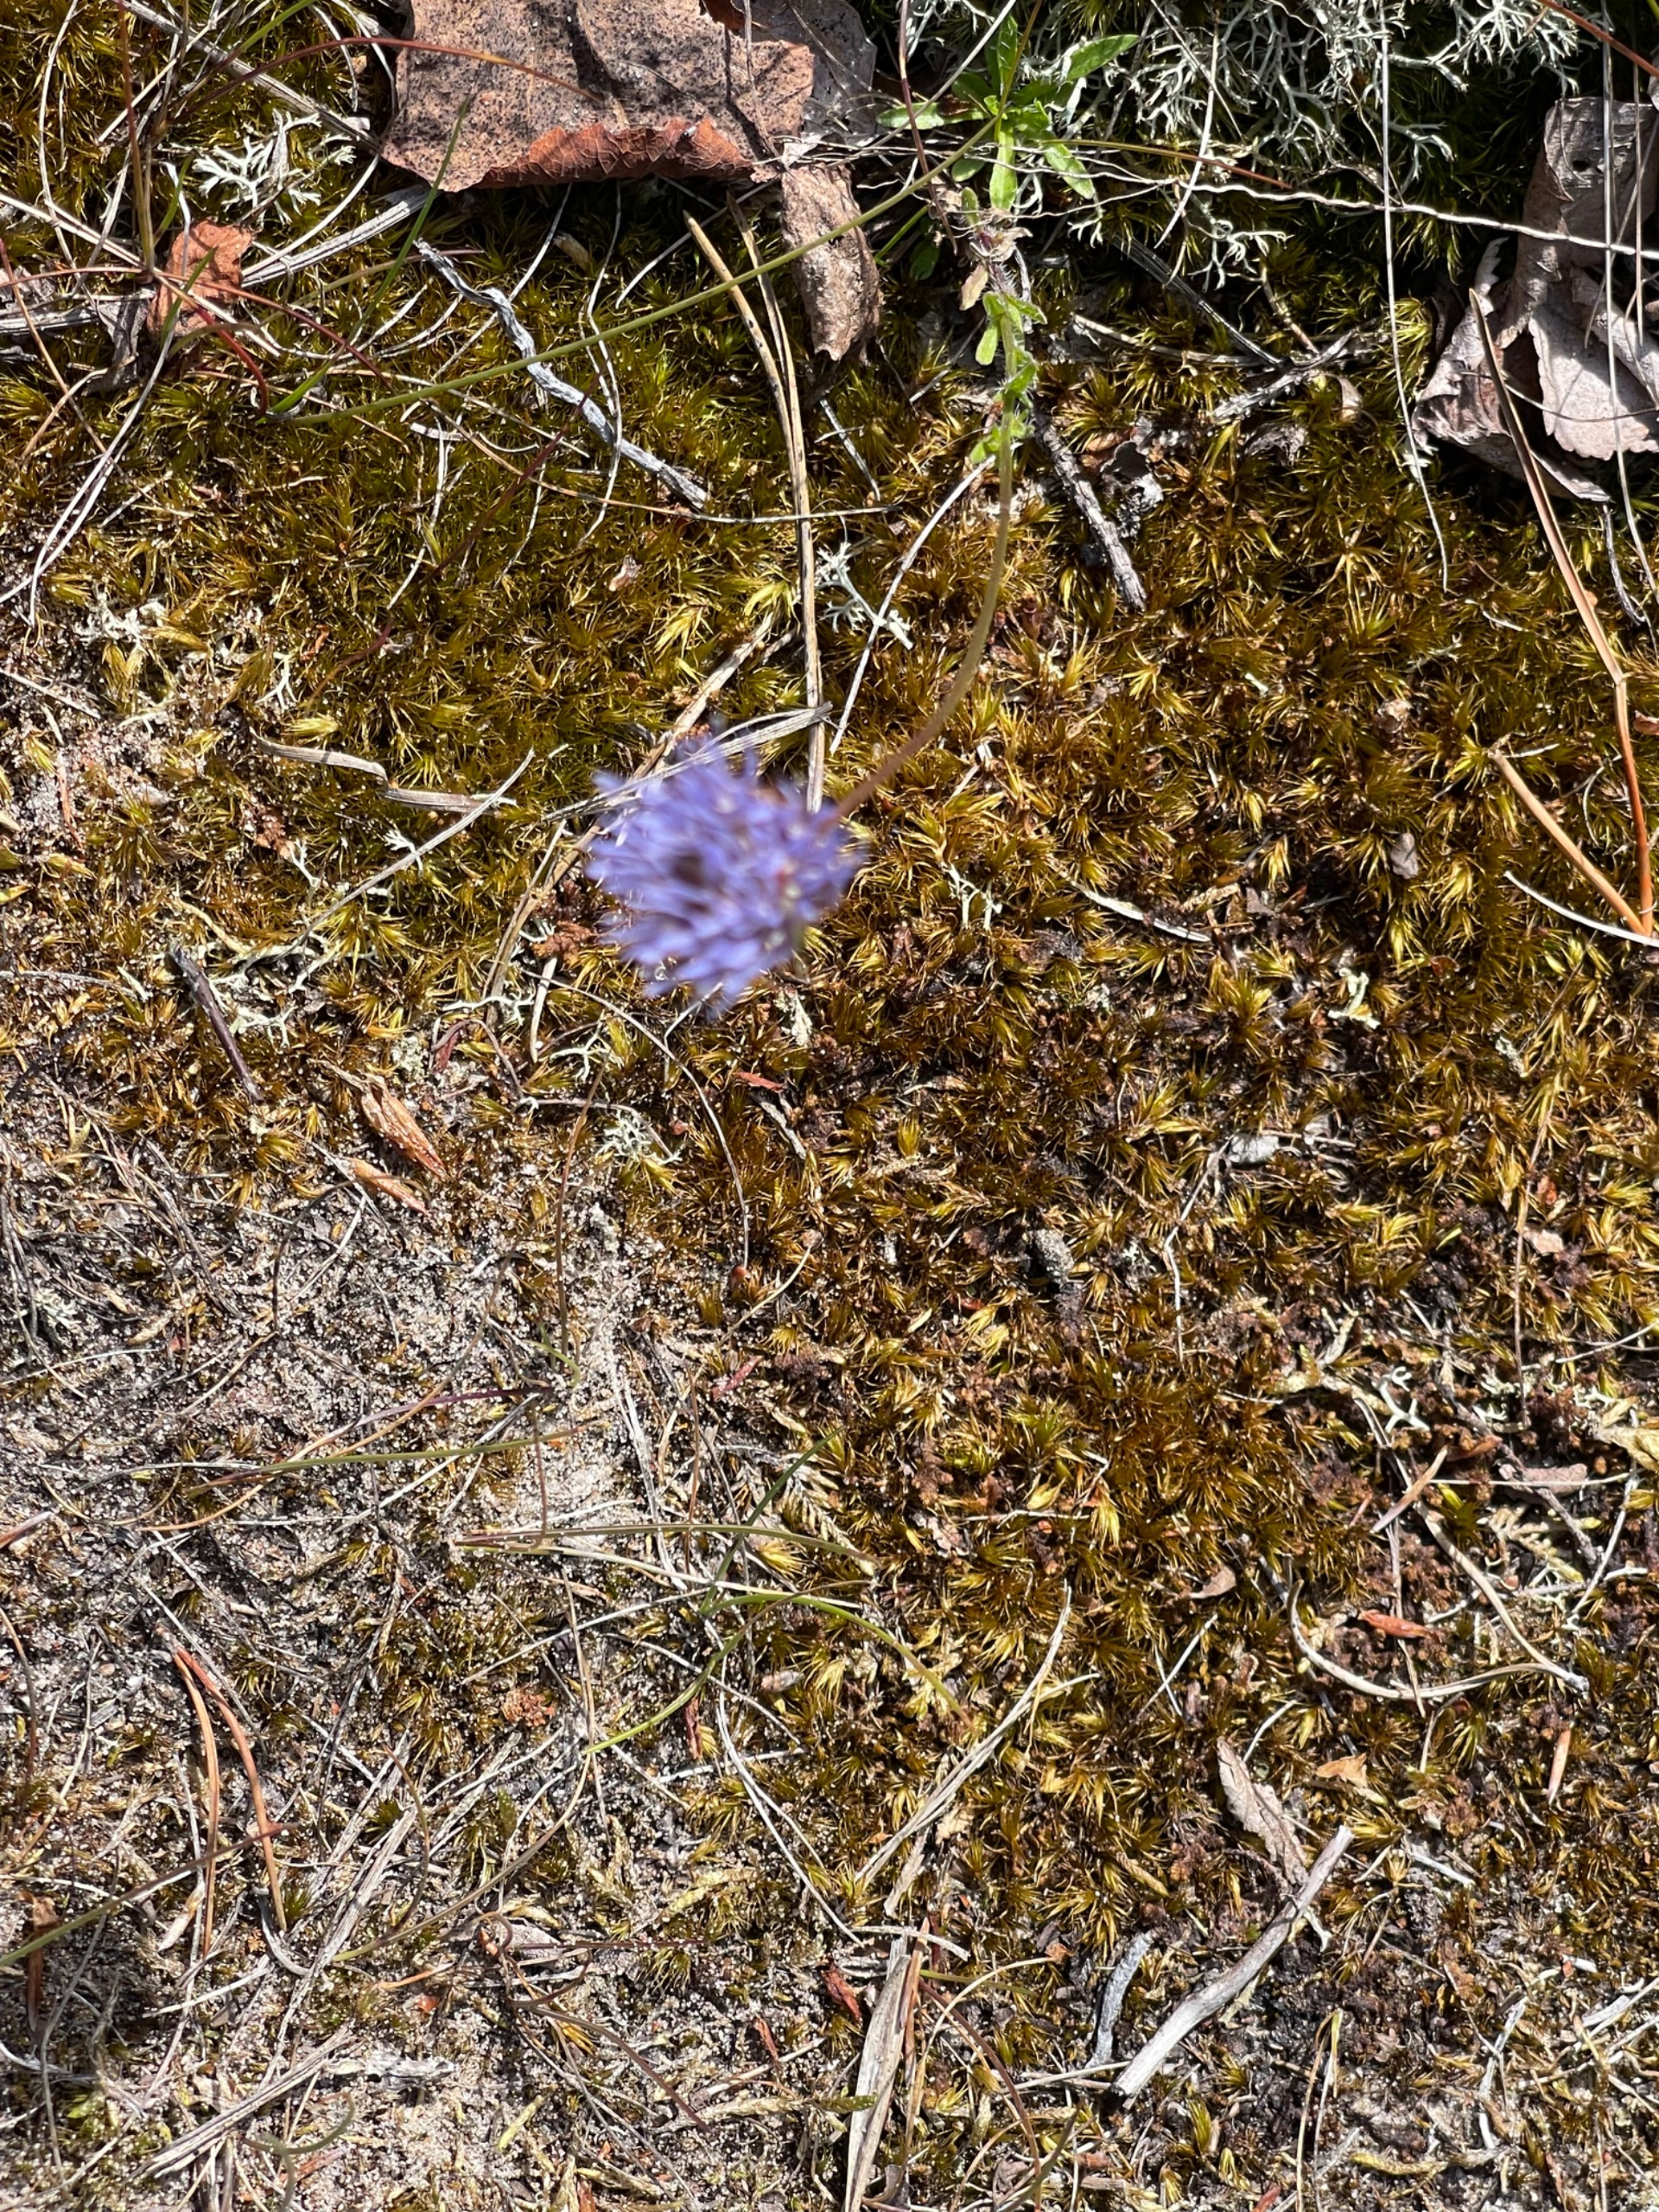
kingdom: Plantae
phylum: Tracheophyta
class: Magnoliopsida
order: Asterales
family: Campanulaceae
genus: Jasione
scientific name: Jasione montana
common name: Blåmunke
